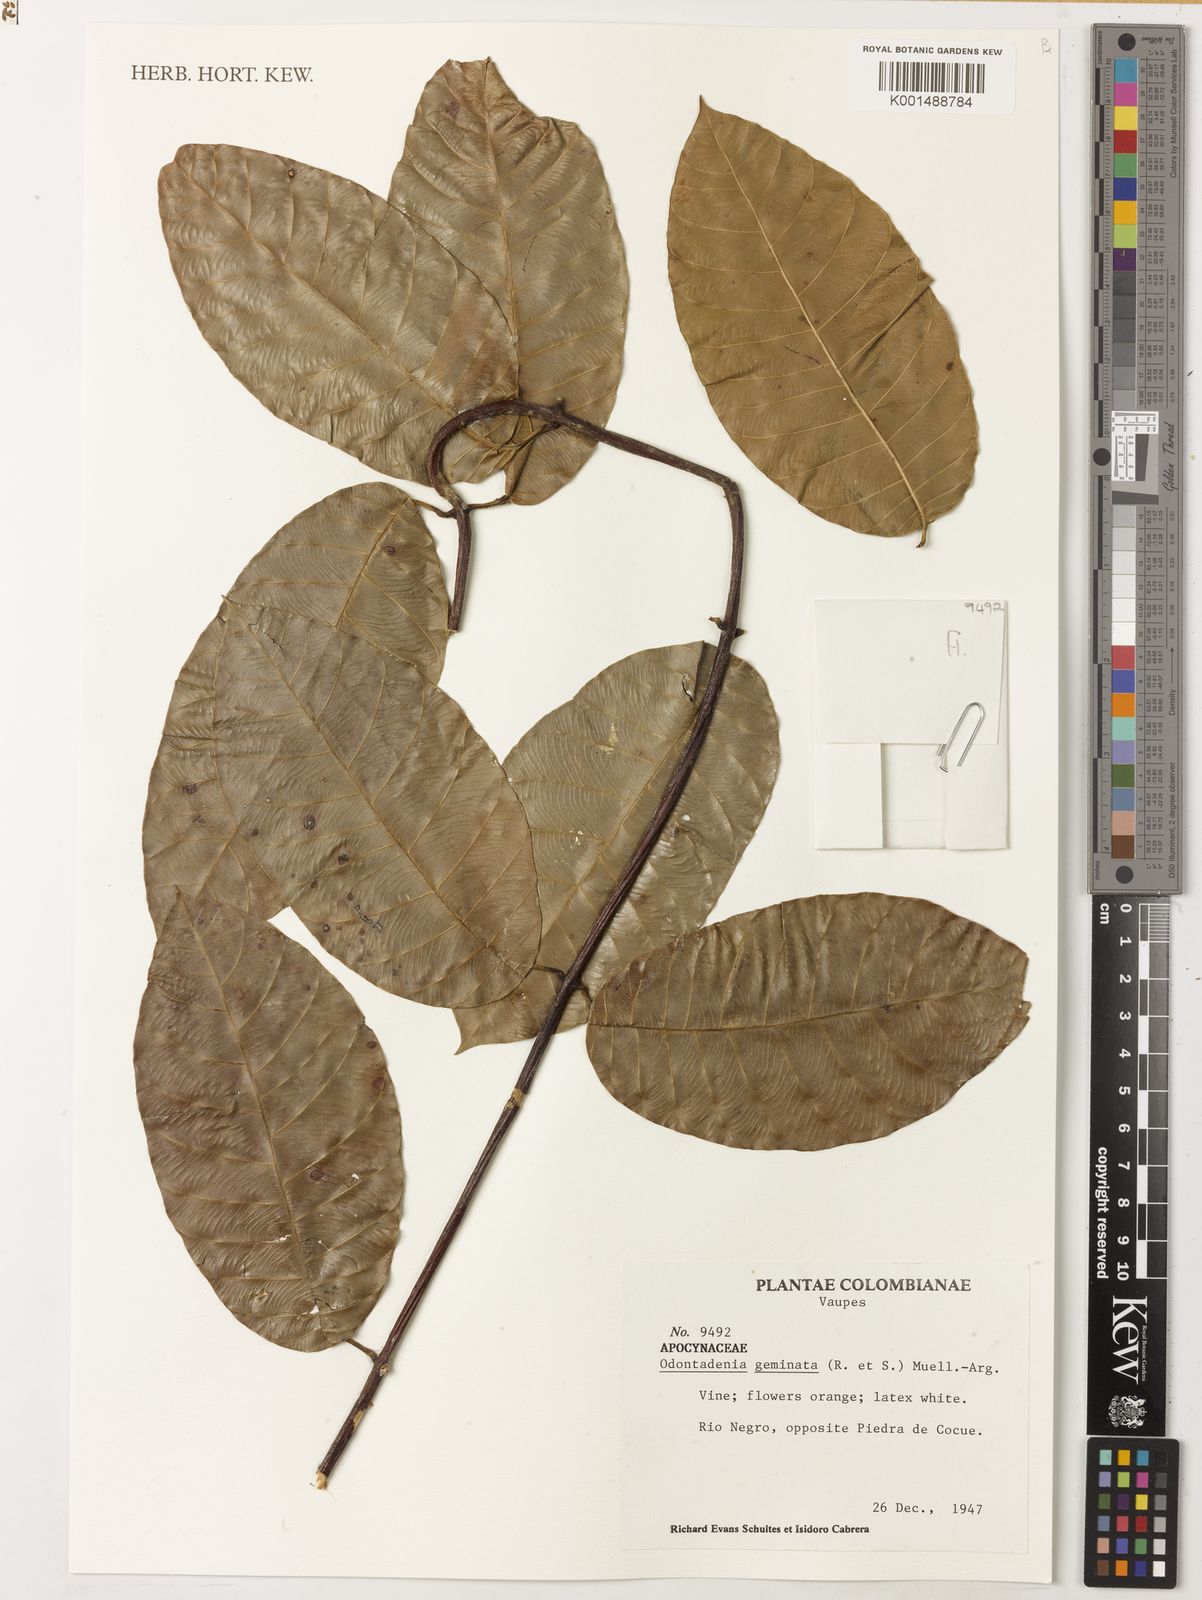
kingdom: Plantae
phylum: Tracheophyta
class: Magnoliopsida
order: Gentianales
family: Apocynaceae
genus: Odontadenia
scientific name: Odontadenia geminata
